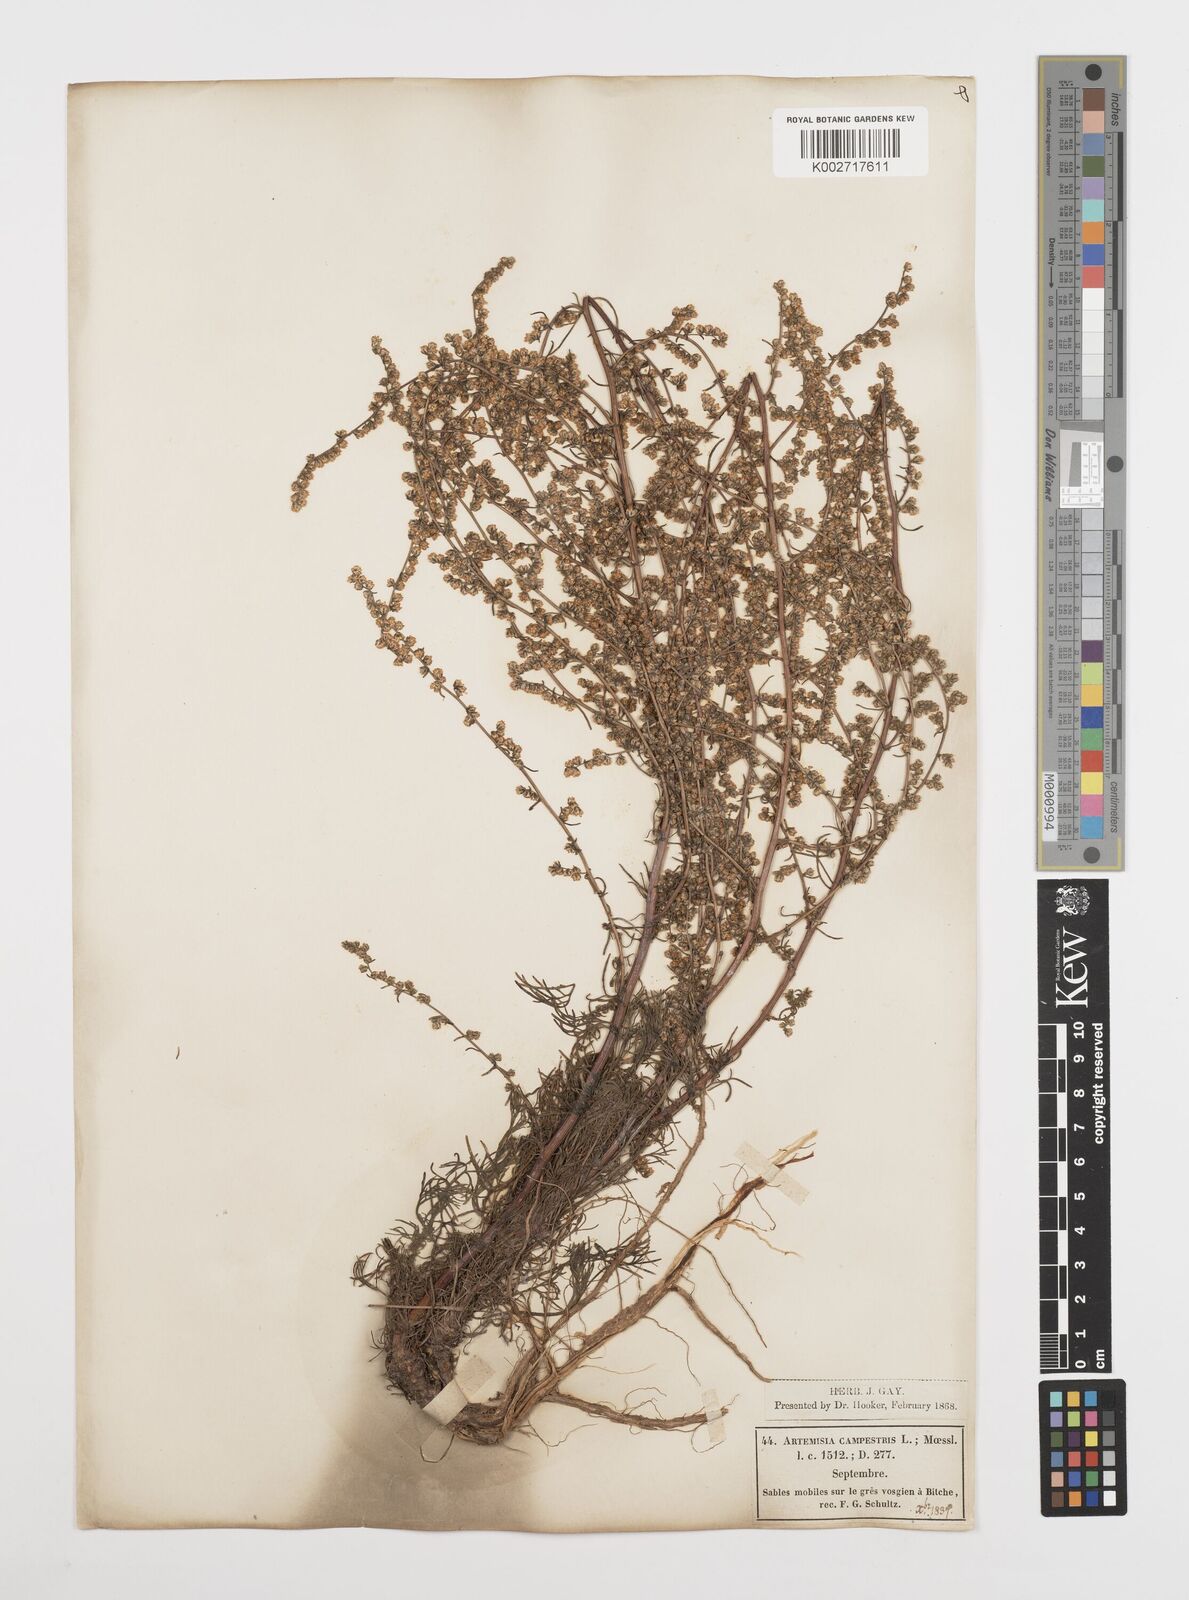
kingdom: Plantae
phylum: Tracheophyta
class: Magnoliopsida
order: Asterales
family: Asteraceae
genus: Artemisia
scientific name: Artemisia campestris
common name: Field wormwood
